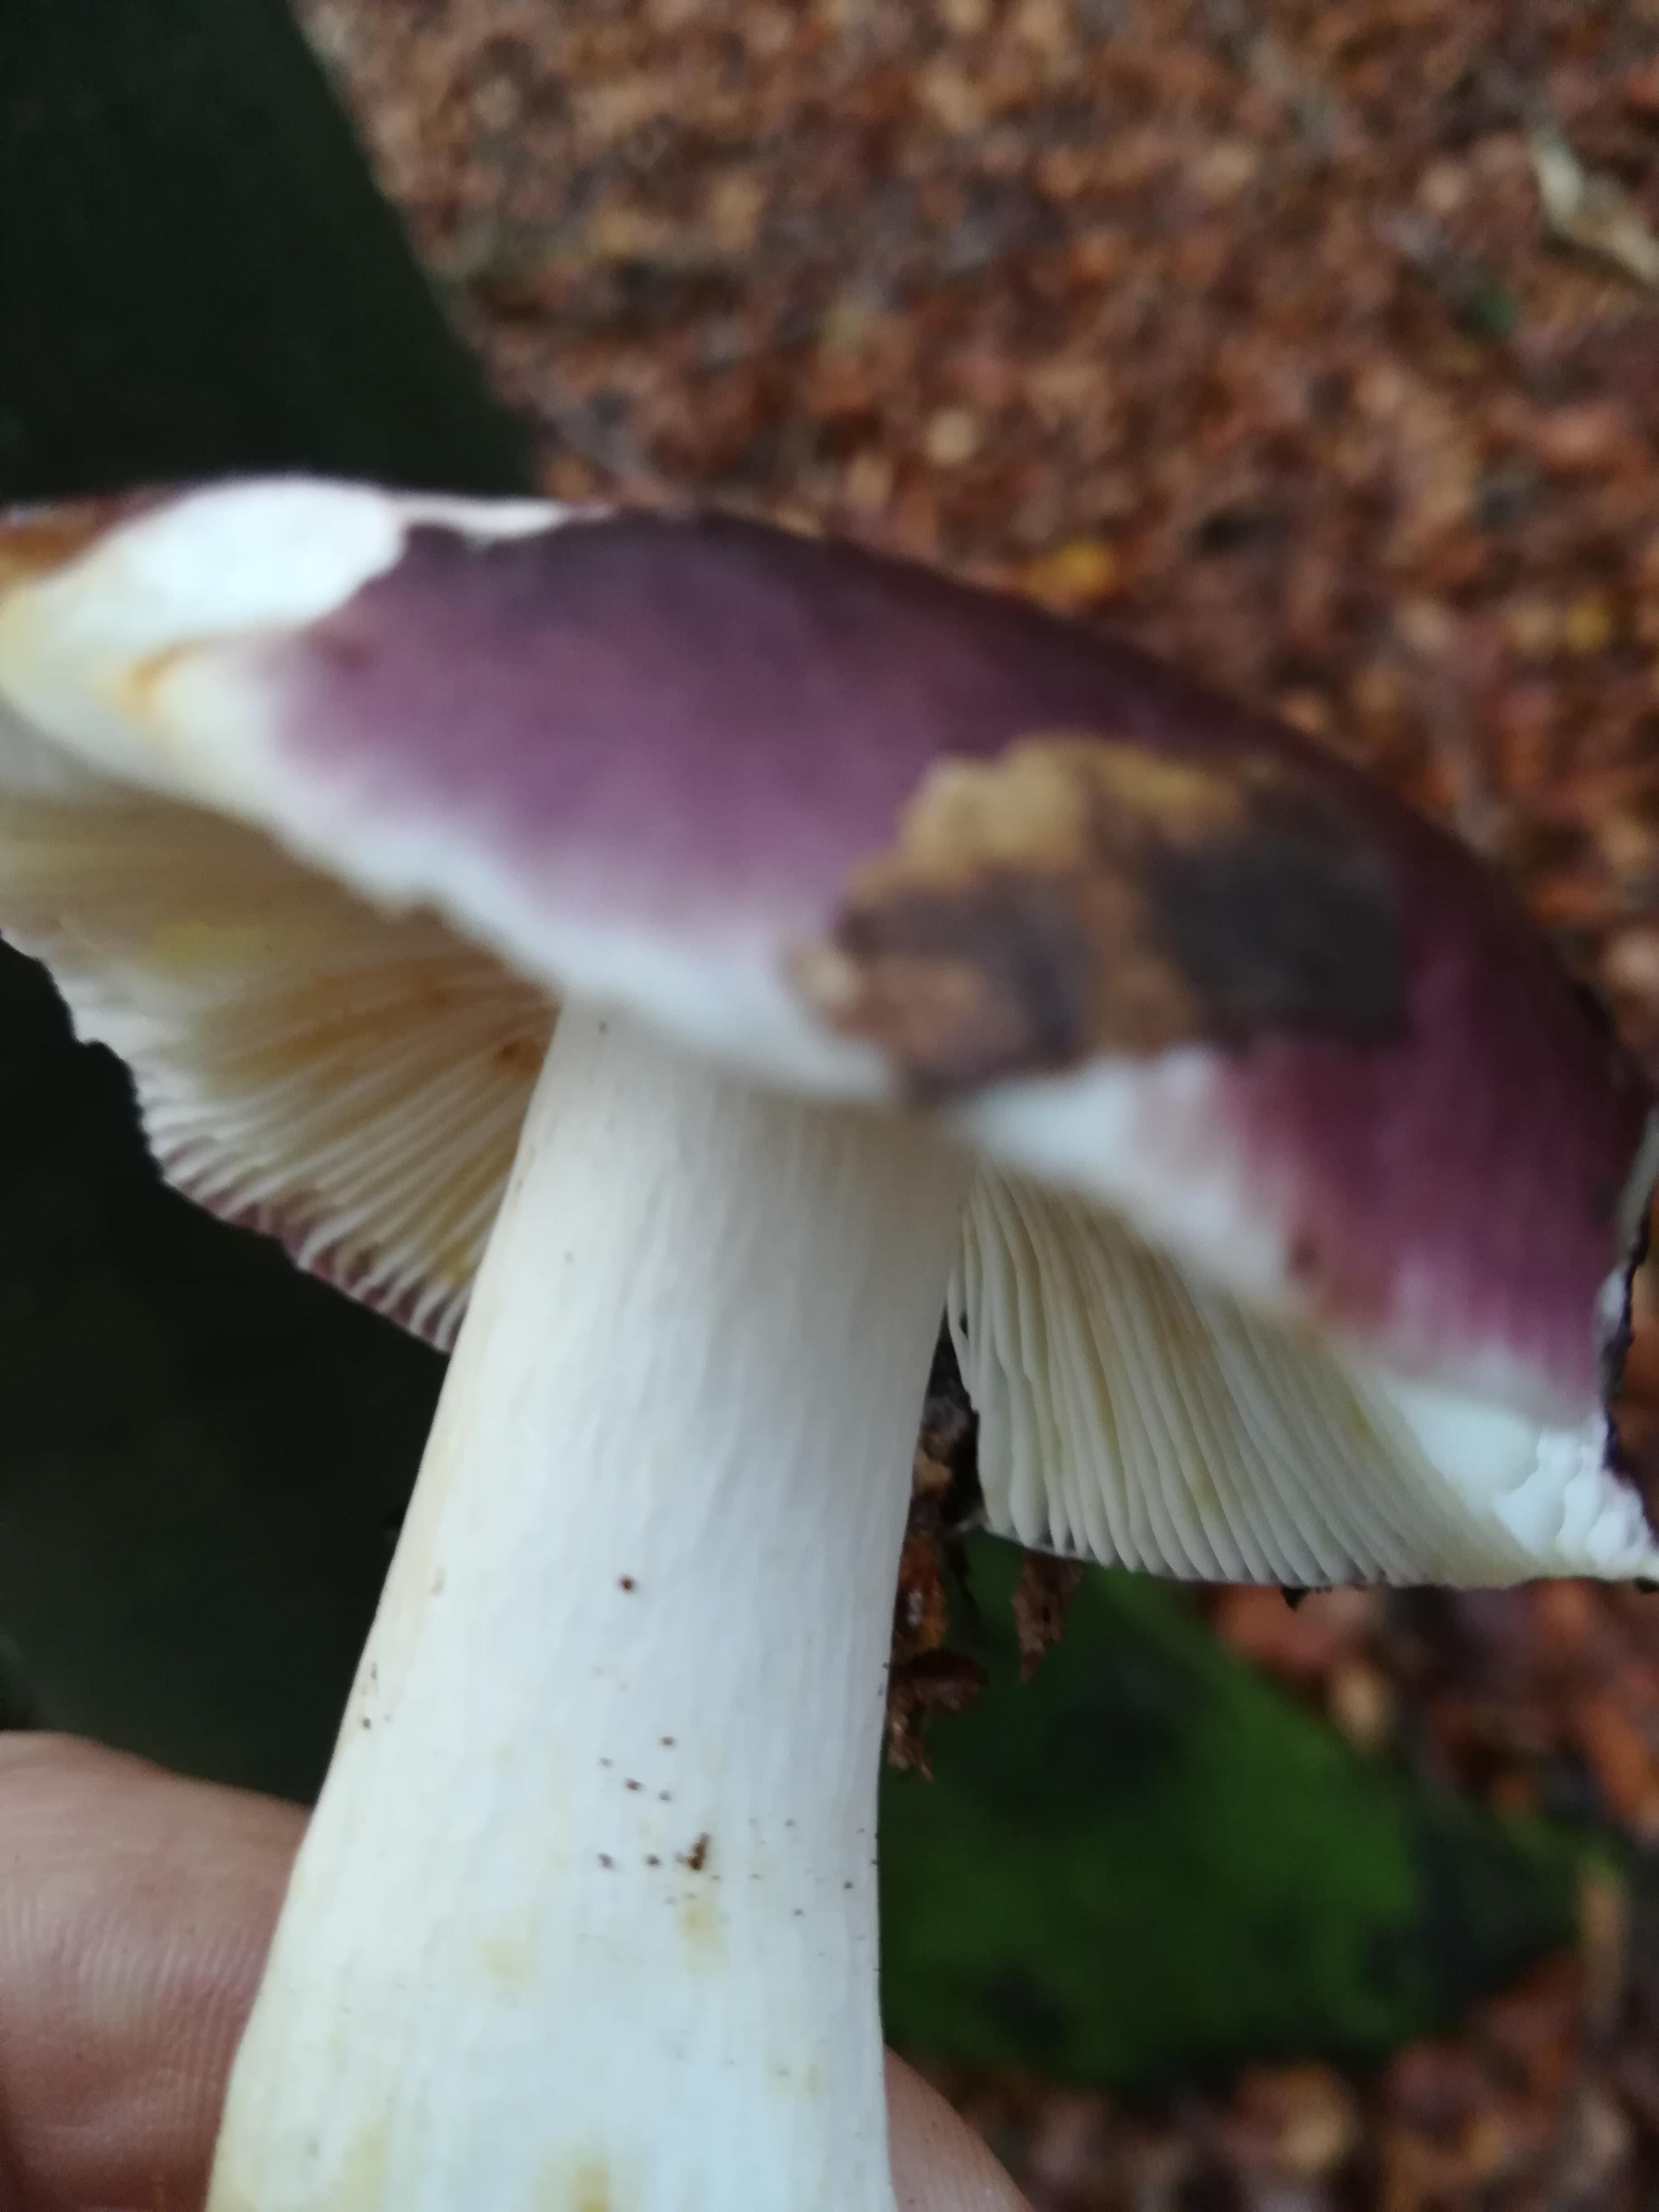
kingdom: Fungi
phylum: Basidiomycota
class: Agaricomycetes
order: Russulales
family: Russulaceae
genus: Russula
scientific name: Russula
